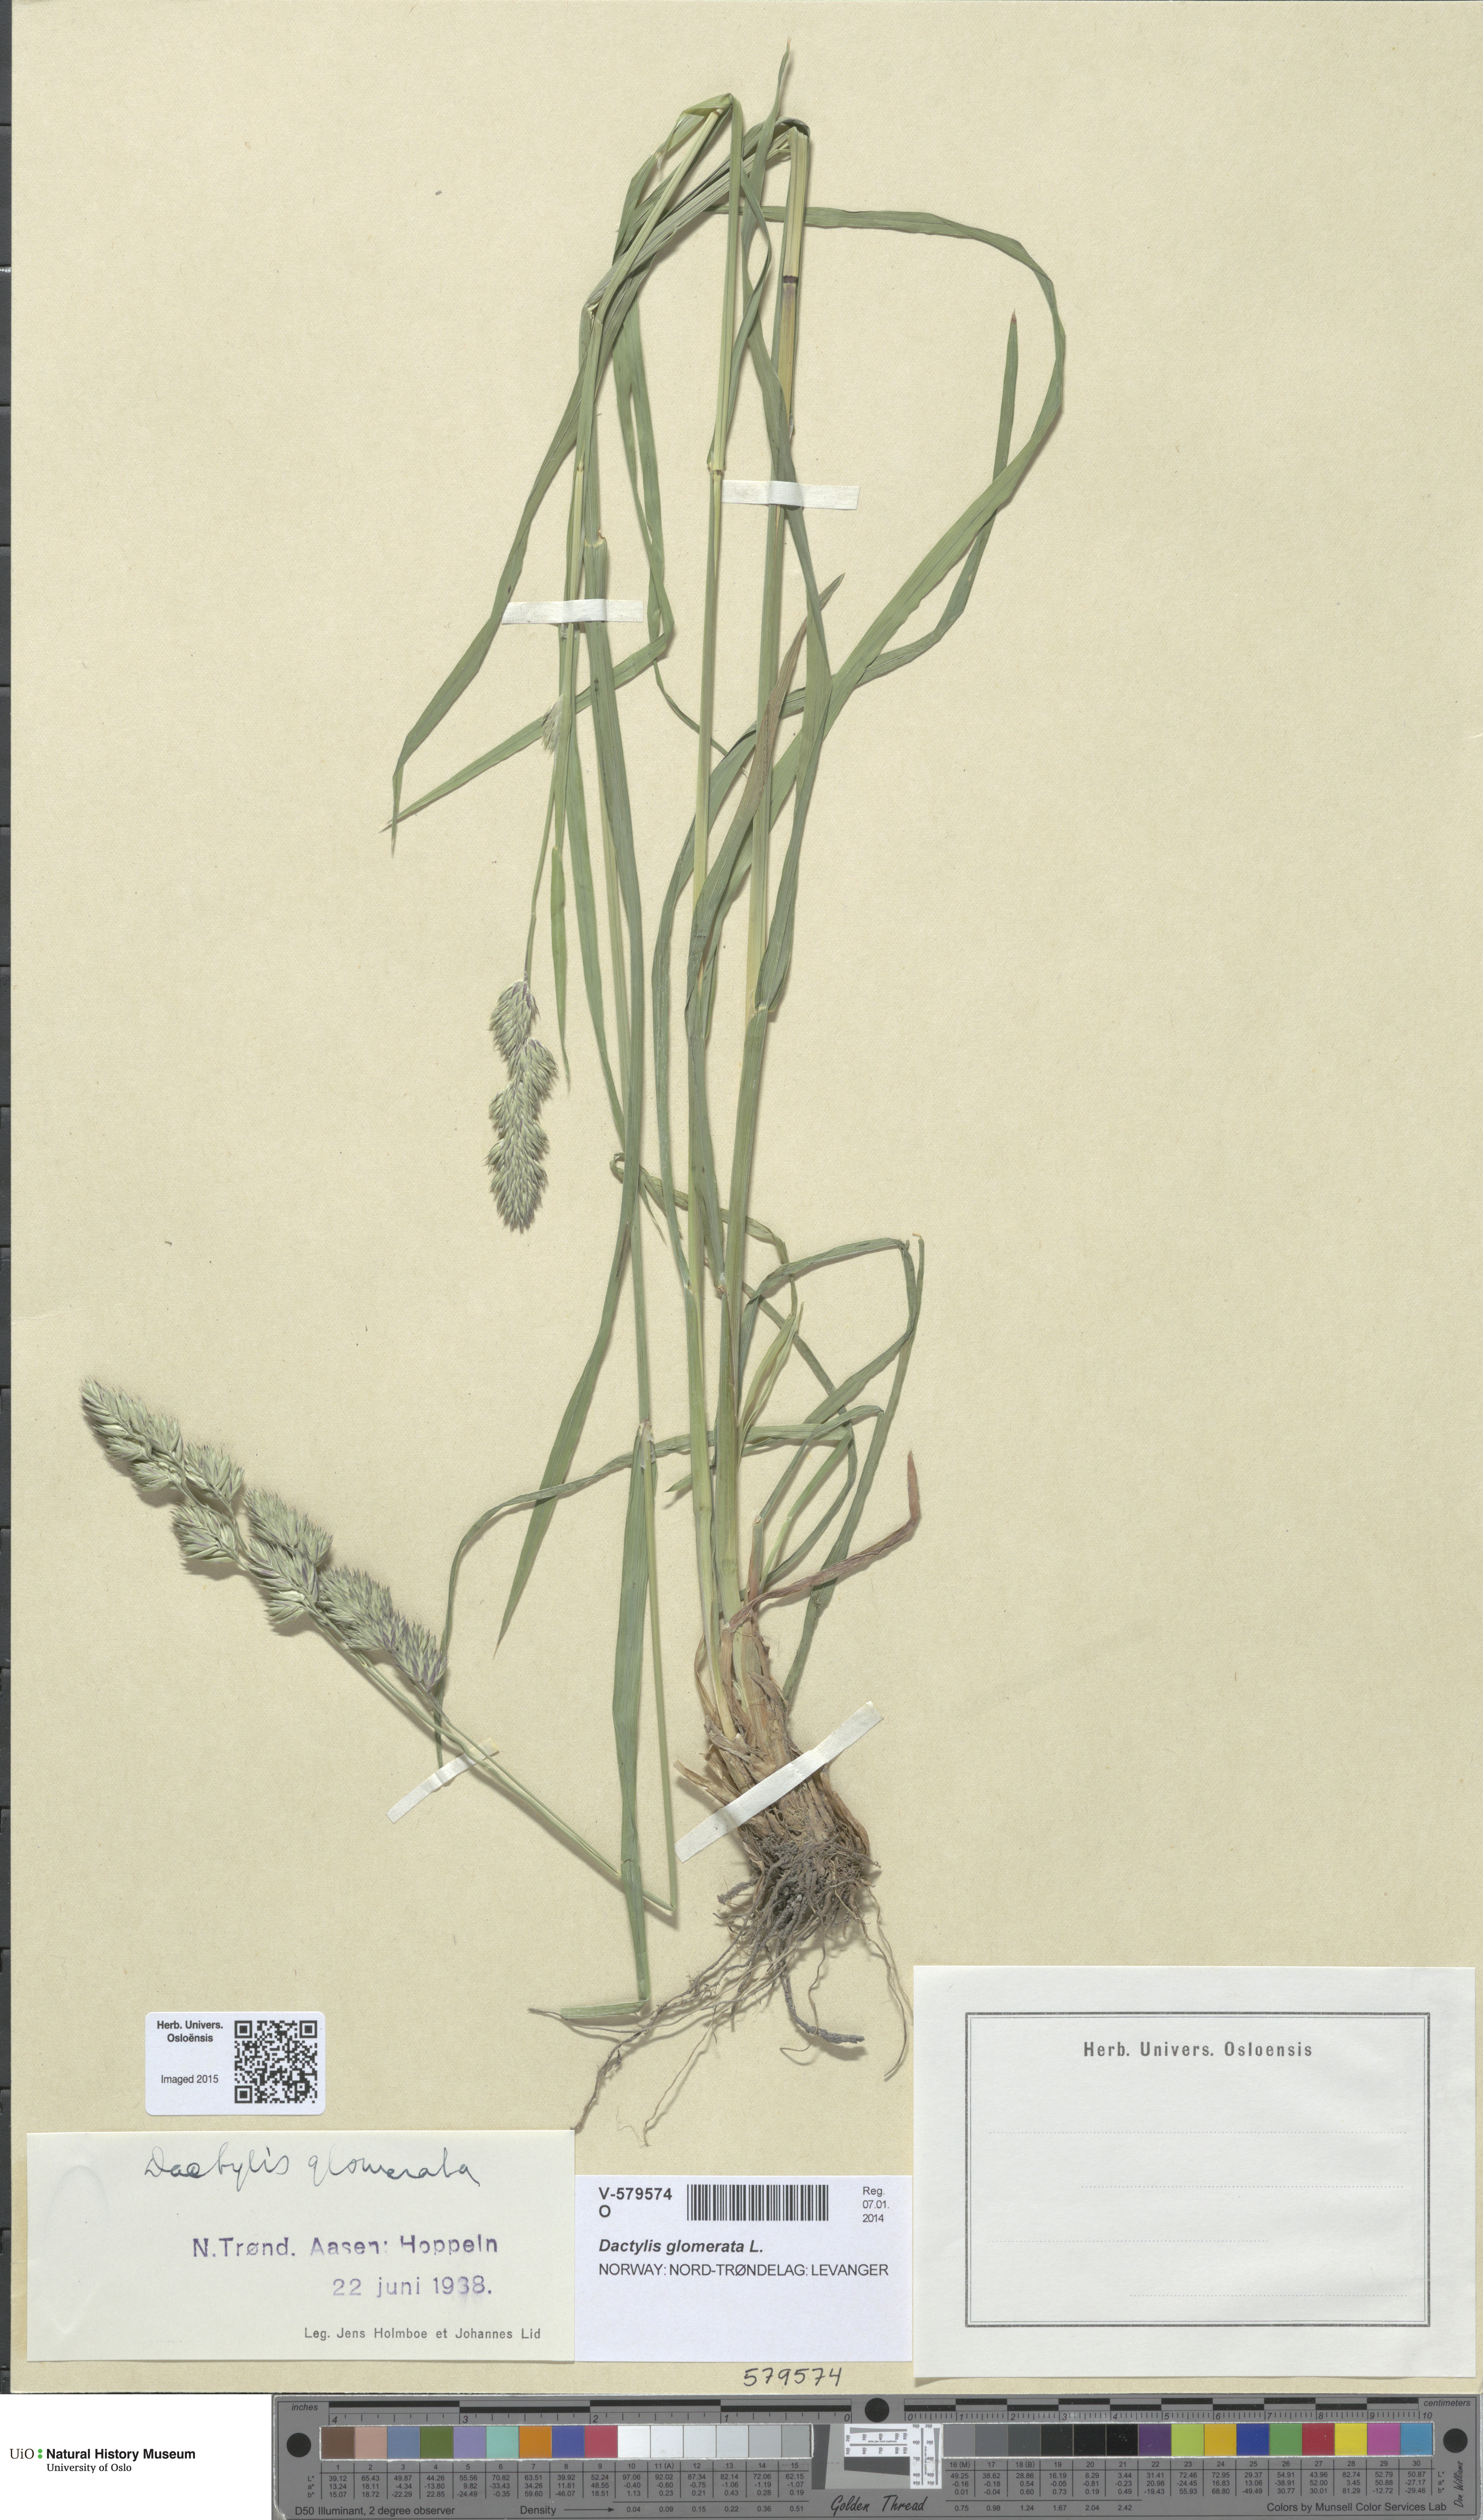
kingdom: Plantae
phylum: Tracheophyta
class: Liliopsida
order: Poales
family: Poaceae
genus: Dactylis
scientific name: Dactylis glomerata
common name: Orchardgrass
